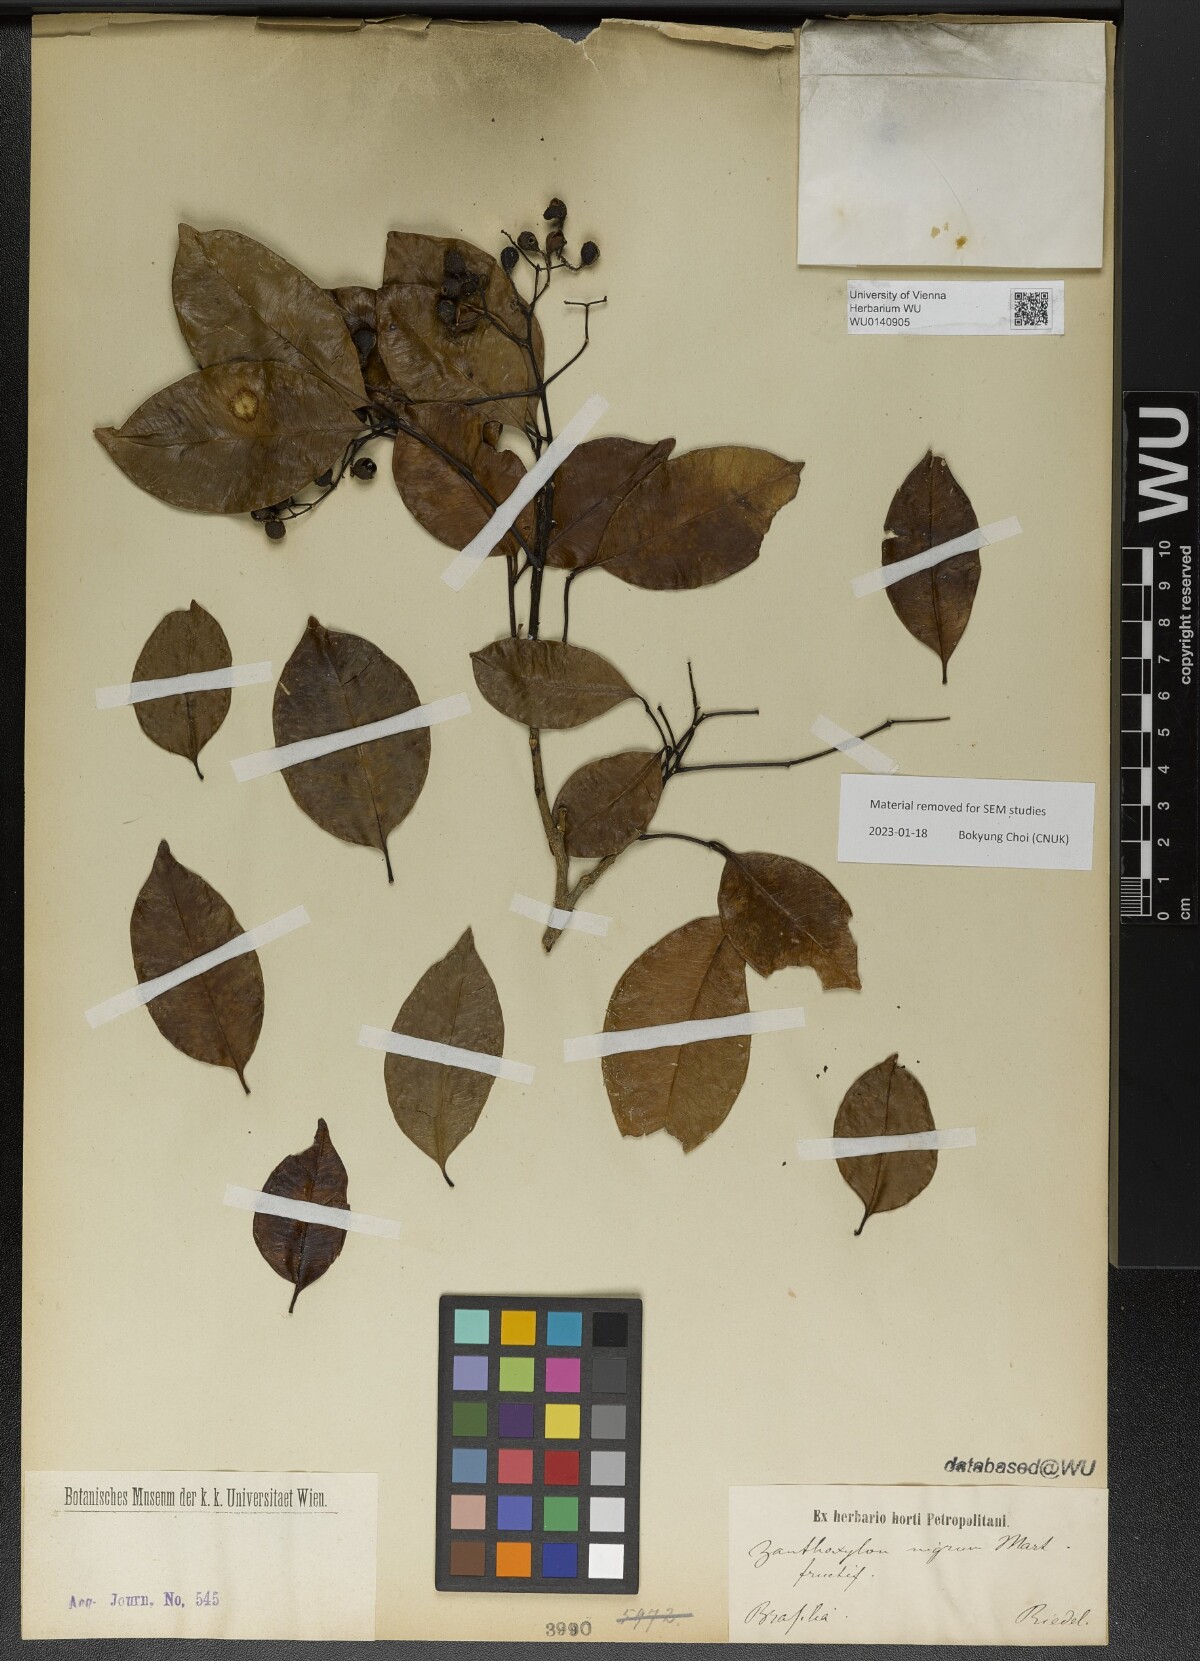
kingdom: Plantae
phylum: Tracheophyta
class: Magnoliopsida
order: Sapindales
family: Rutaceae
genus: Zanthoxylum
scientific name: Zanthoxylum nigrum
